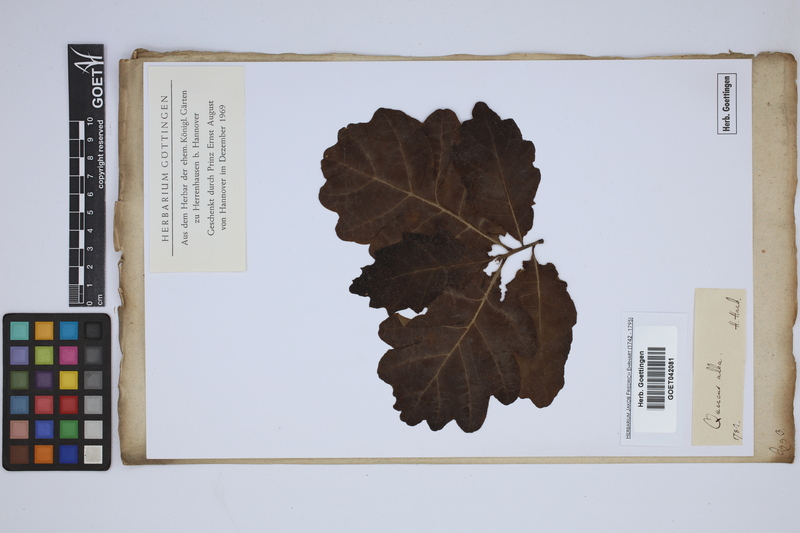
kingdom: Plantae
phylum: Tracheophyta
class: Magnoliopsida
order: Fagales
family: Fagaceae
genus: Quercus
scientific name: Quercus alba
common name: White oak
